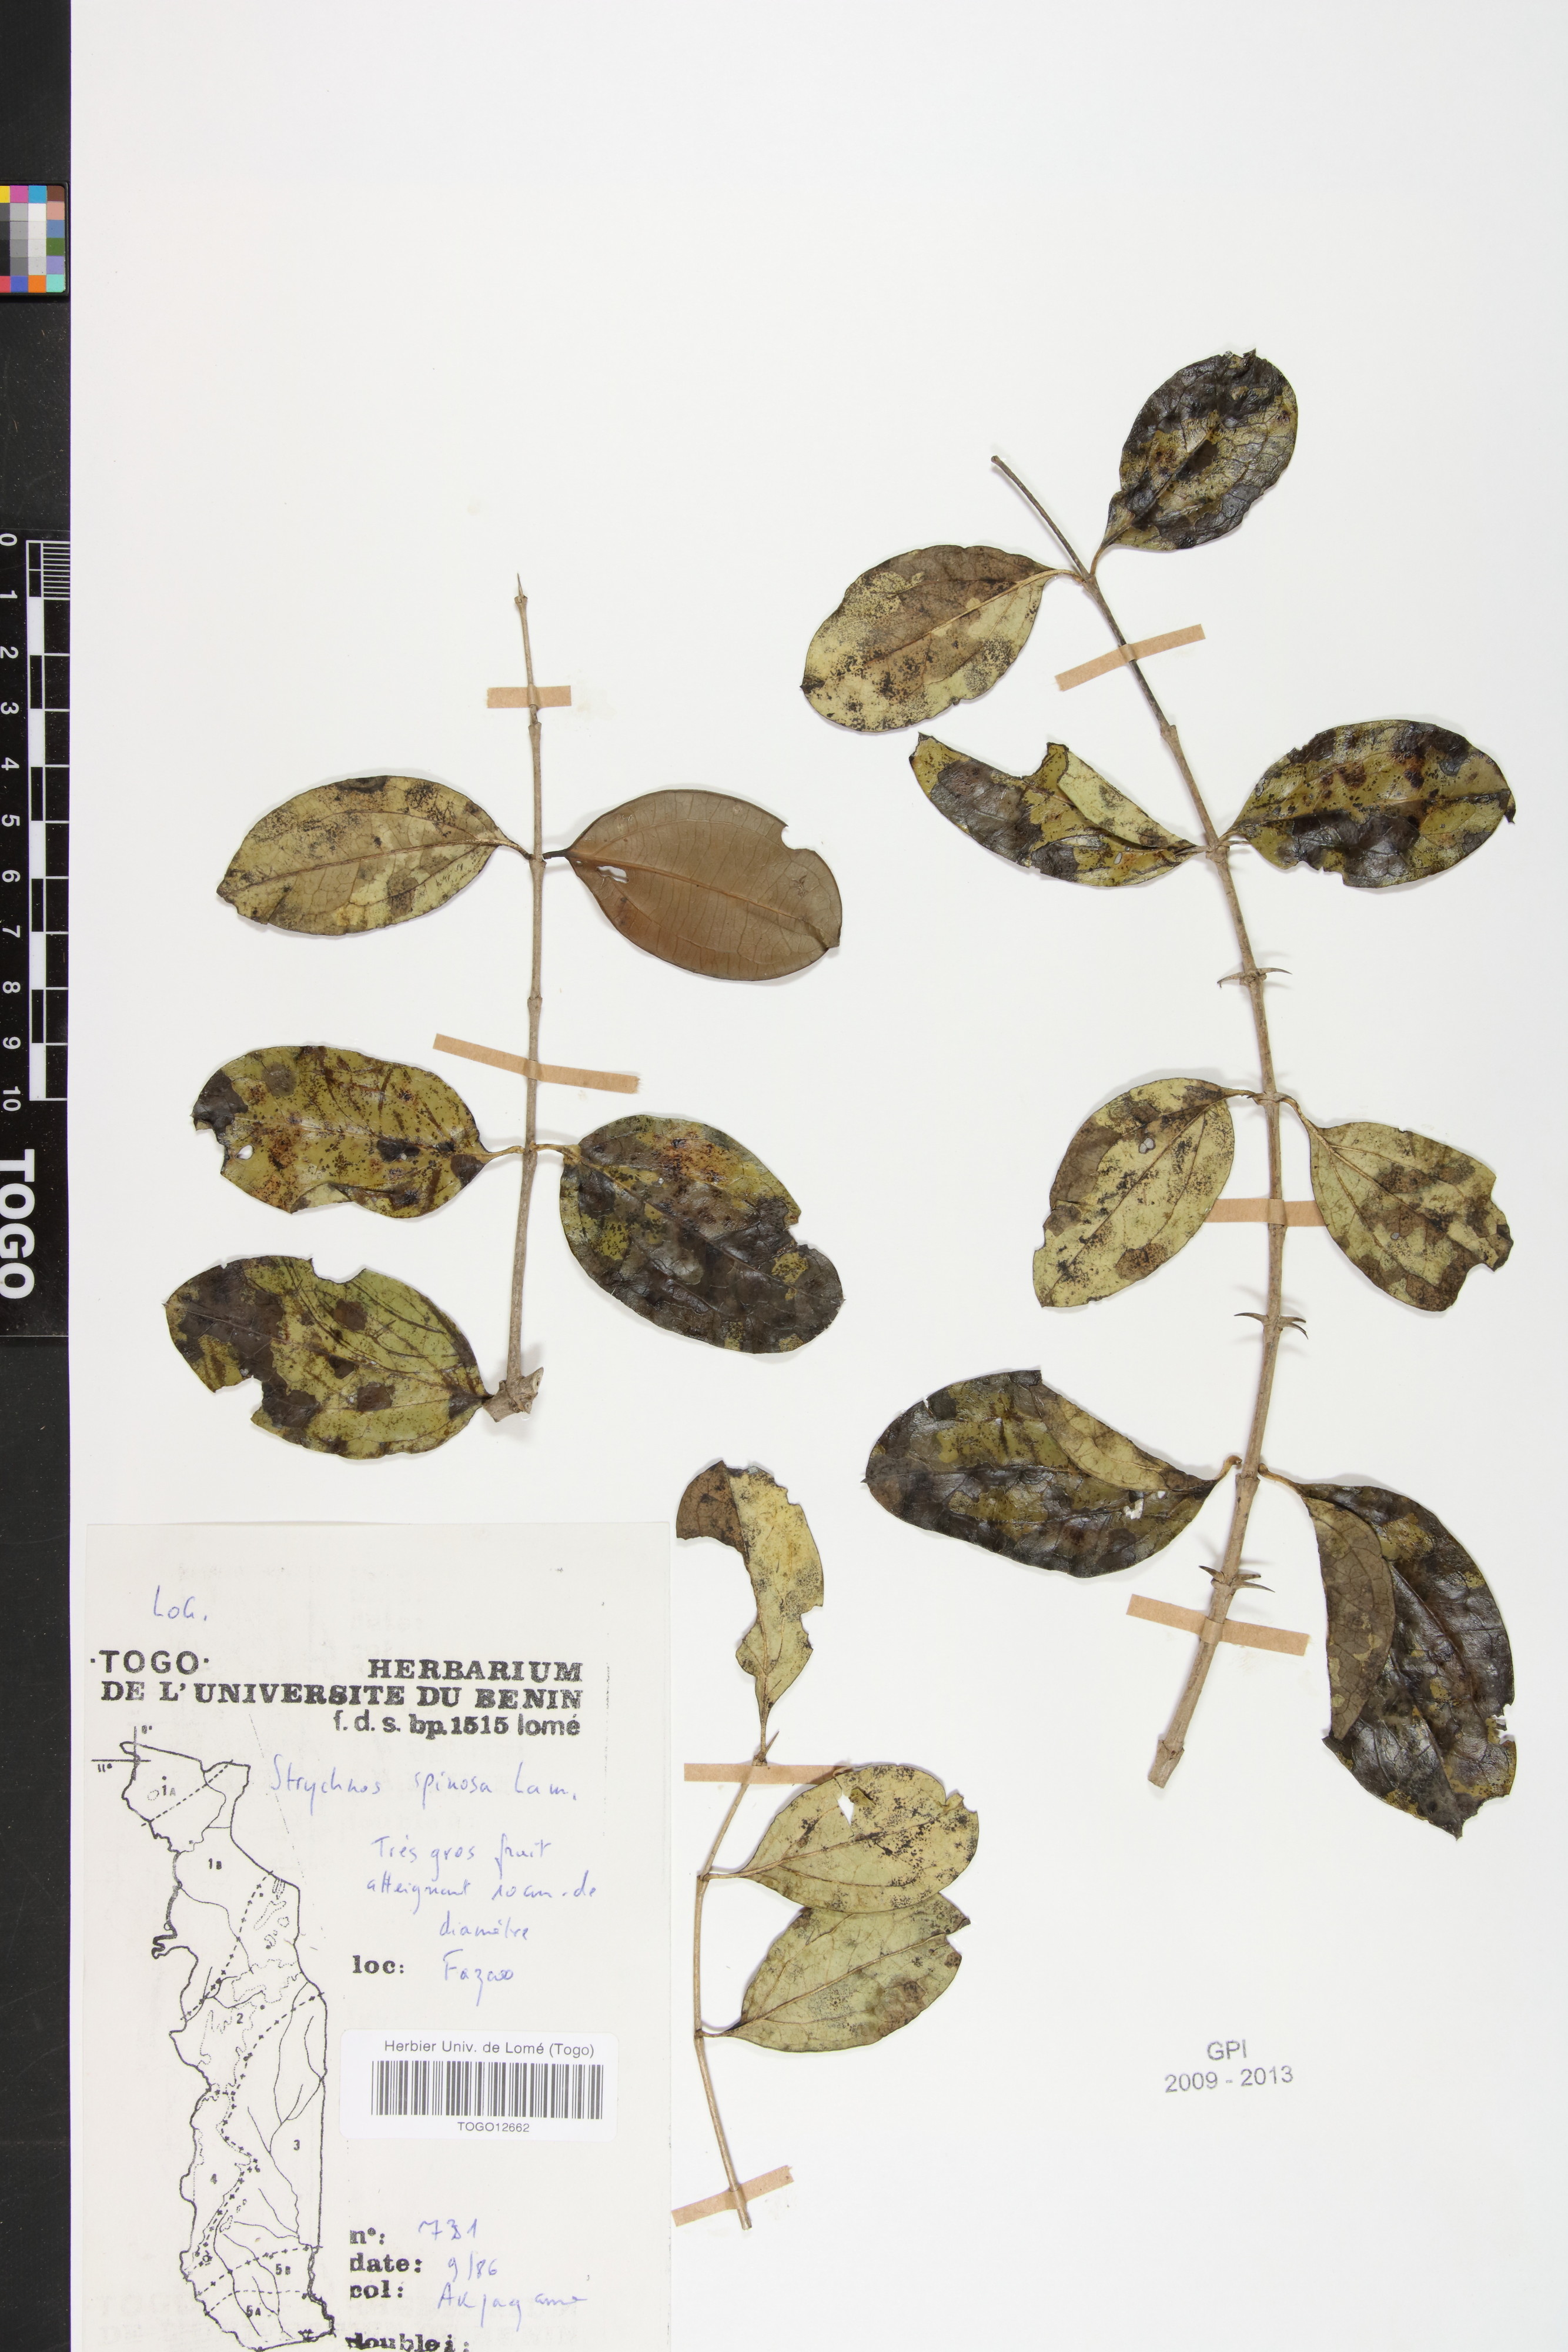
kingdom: Plantae
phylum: Tracheophyta
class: Magnoliopsida
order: Oxalidales
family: Connaraceae
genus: Rourea
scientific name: Rourea thomsonii
